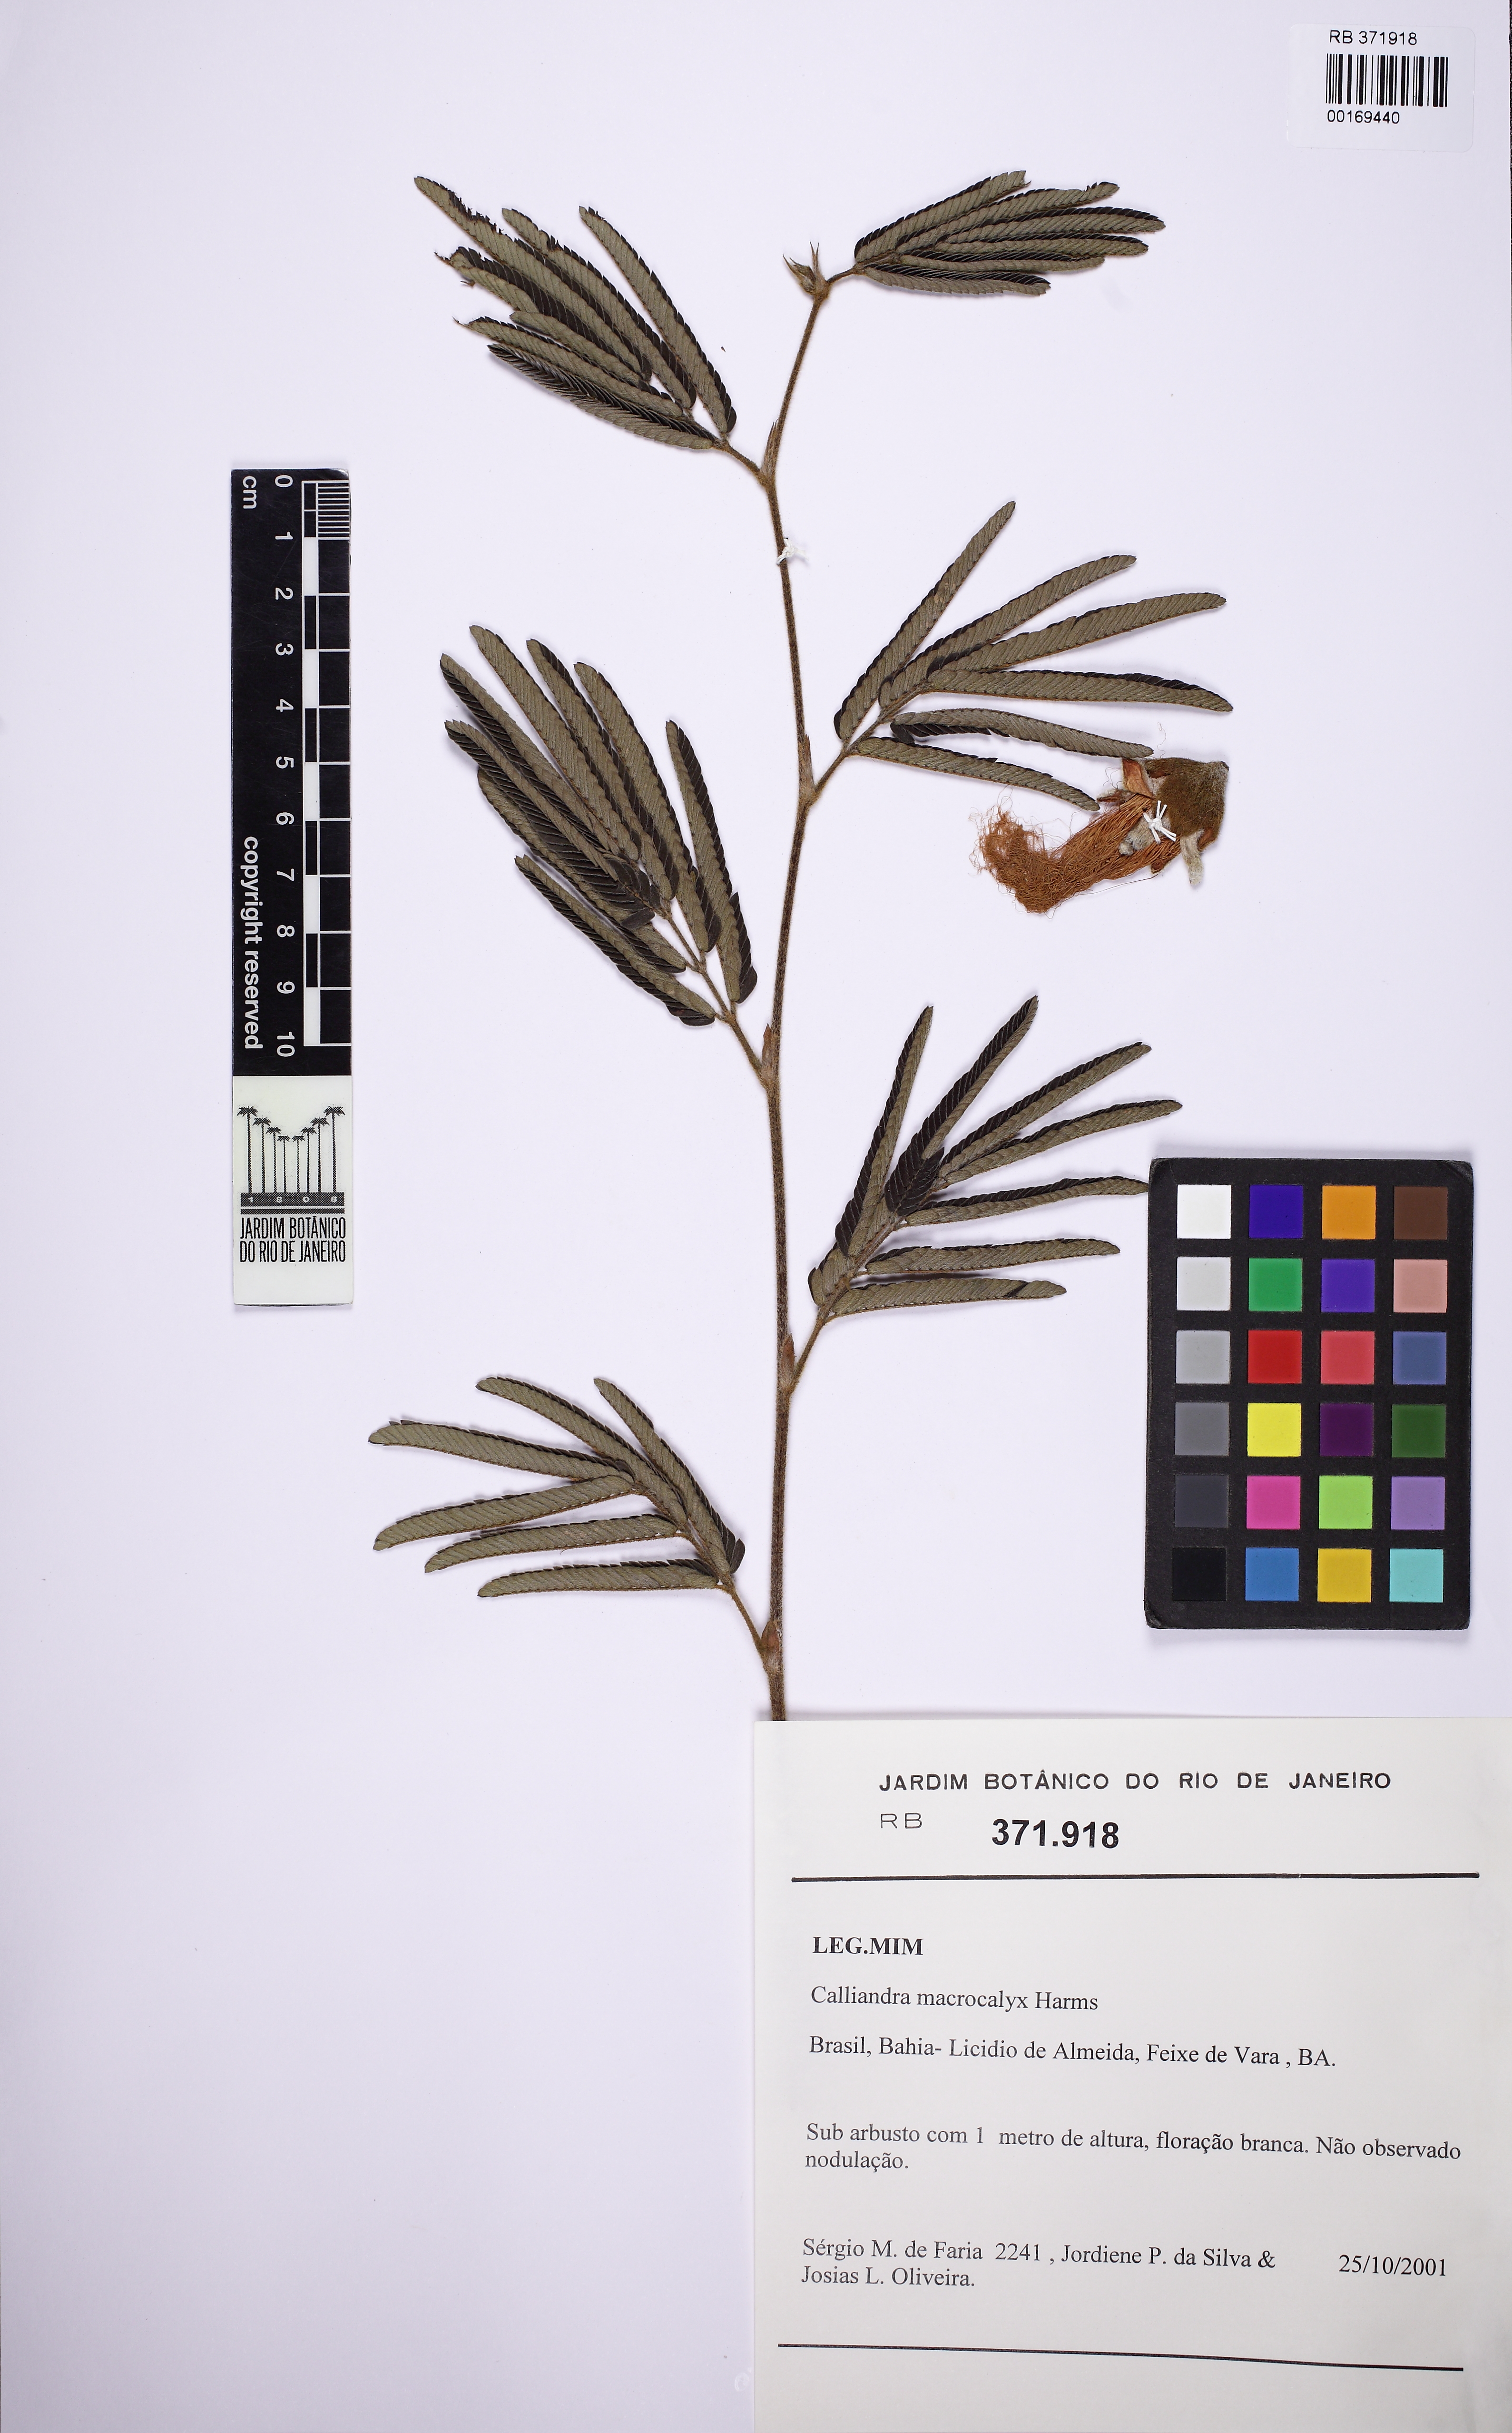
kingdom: Plantae
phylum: Tracheophyta
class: Magnoliopsida
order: Fabales
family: Fabaceae
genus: Calliandra
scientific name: Calliandra macrocalyx
